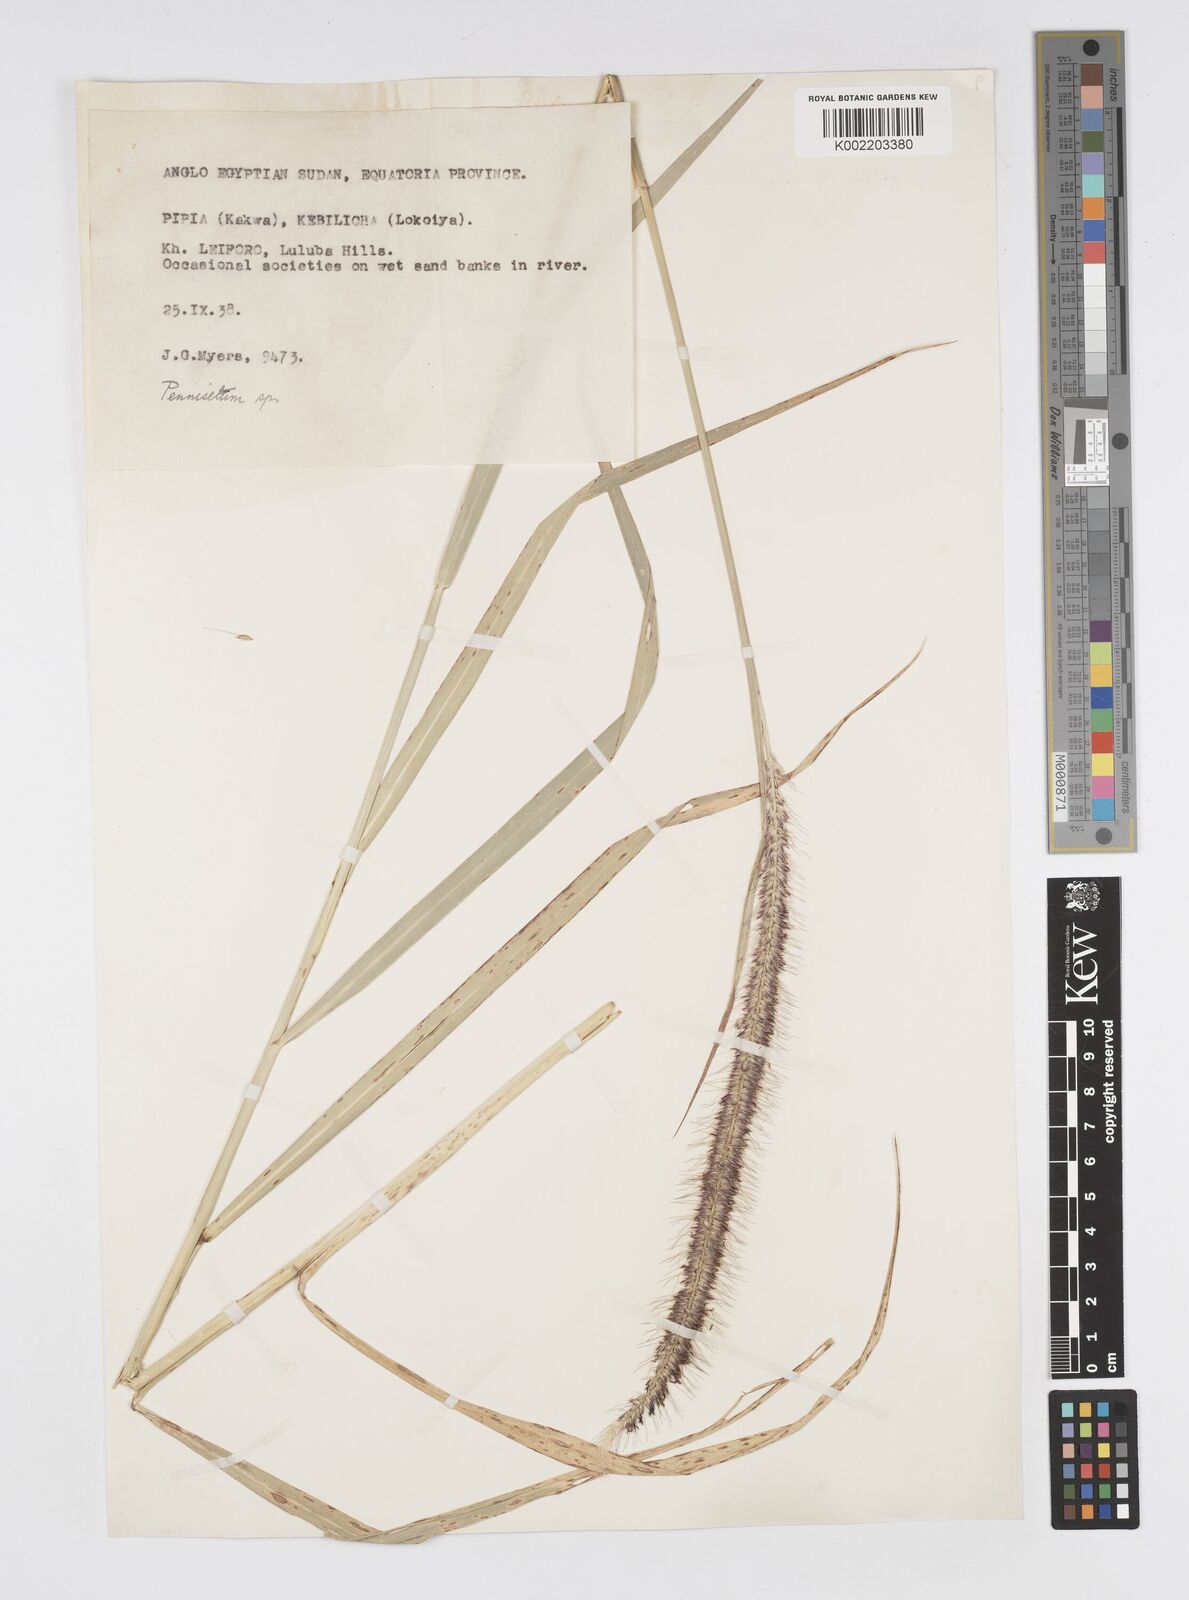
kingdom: Plantae
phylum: Tracheophyta
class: Liliopsida
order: Poales
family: Poaceae
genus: Cenchrus
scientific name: Cenchrus caudatus
